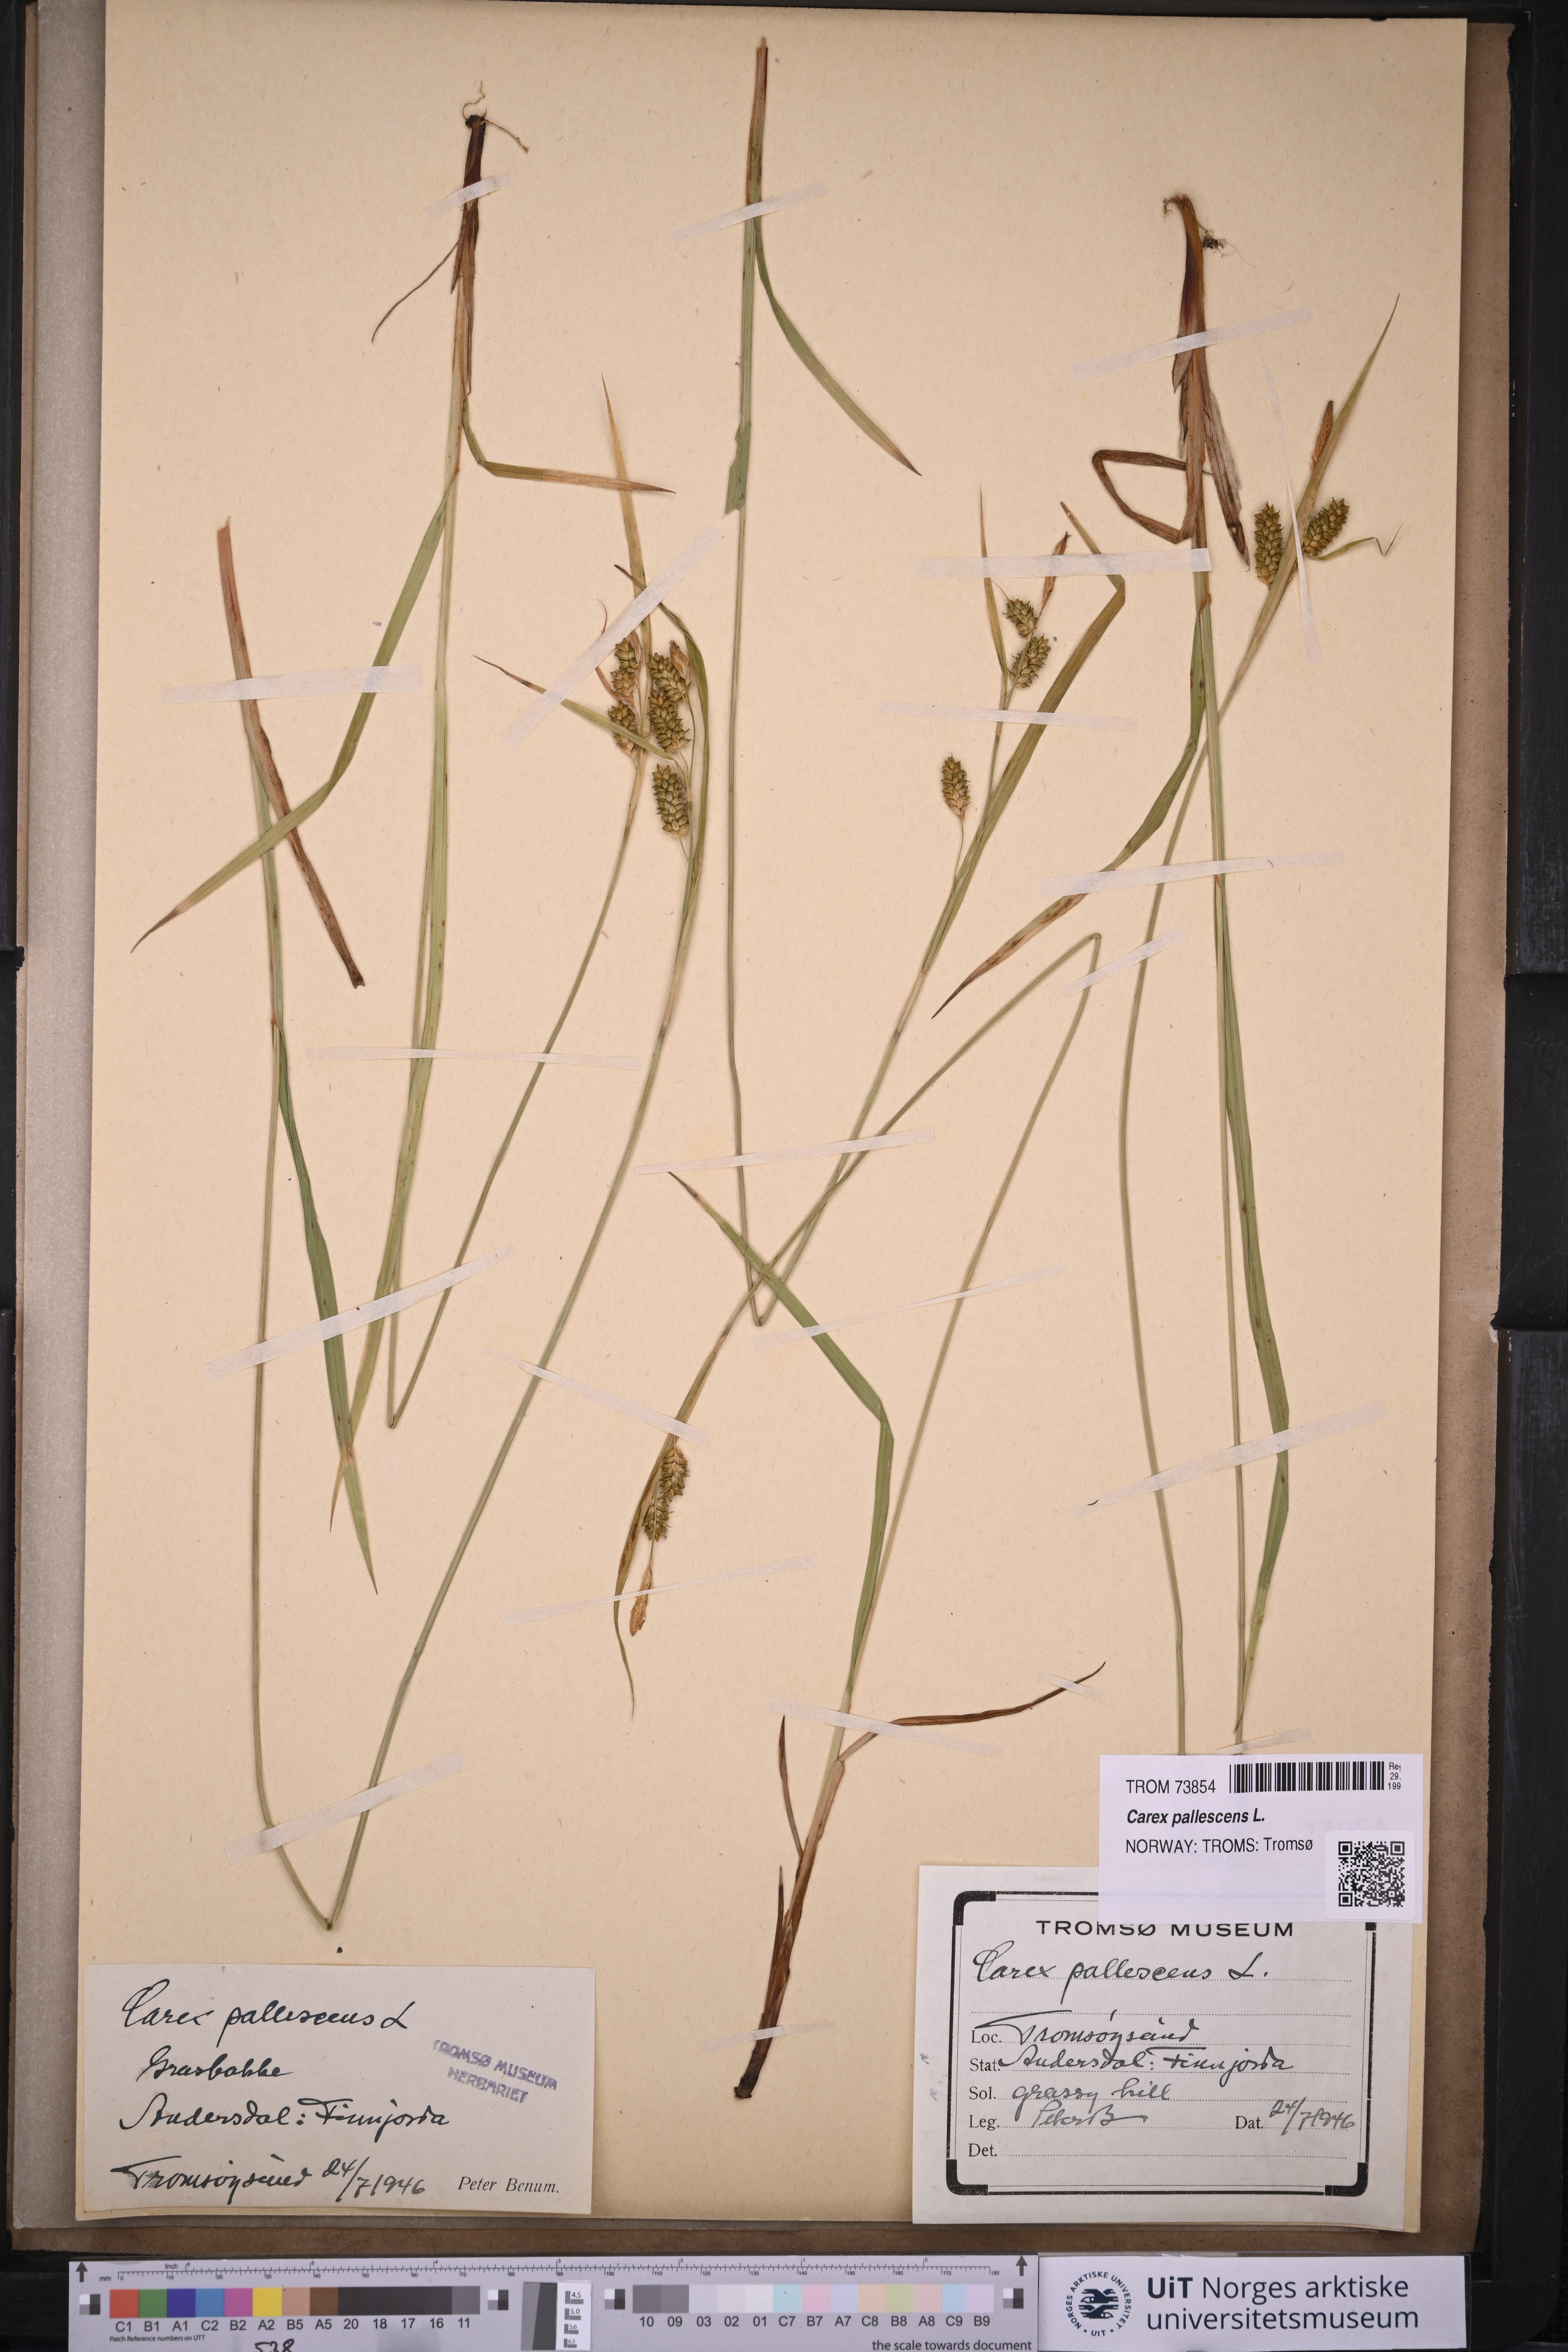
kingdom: Plantae
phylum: Tracheophyta
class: Liliopsida
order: Poales
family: Cyperaceae
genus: Carex
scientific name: Carex pallescens
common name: Pale sedge
